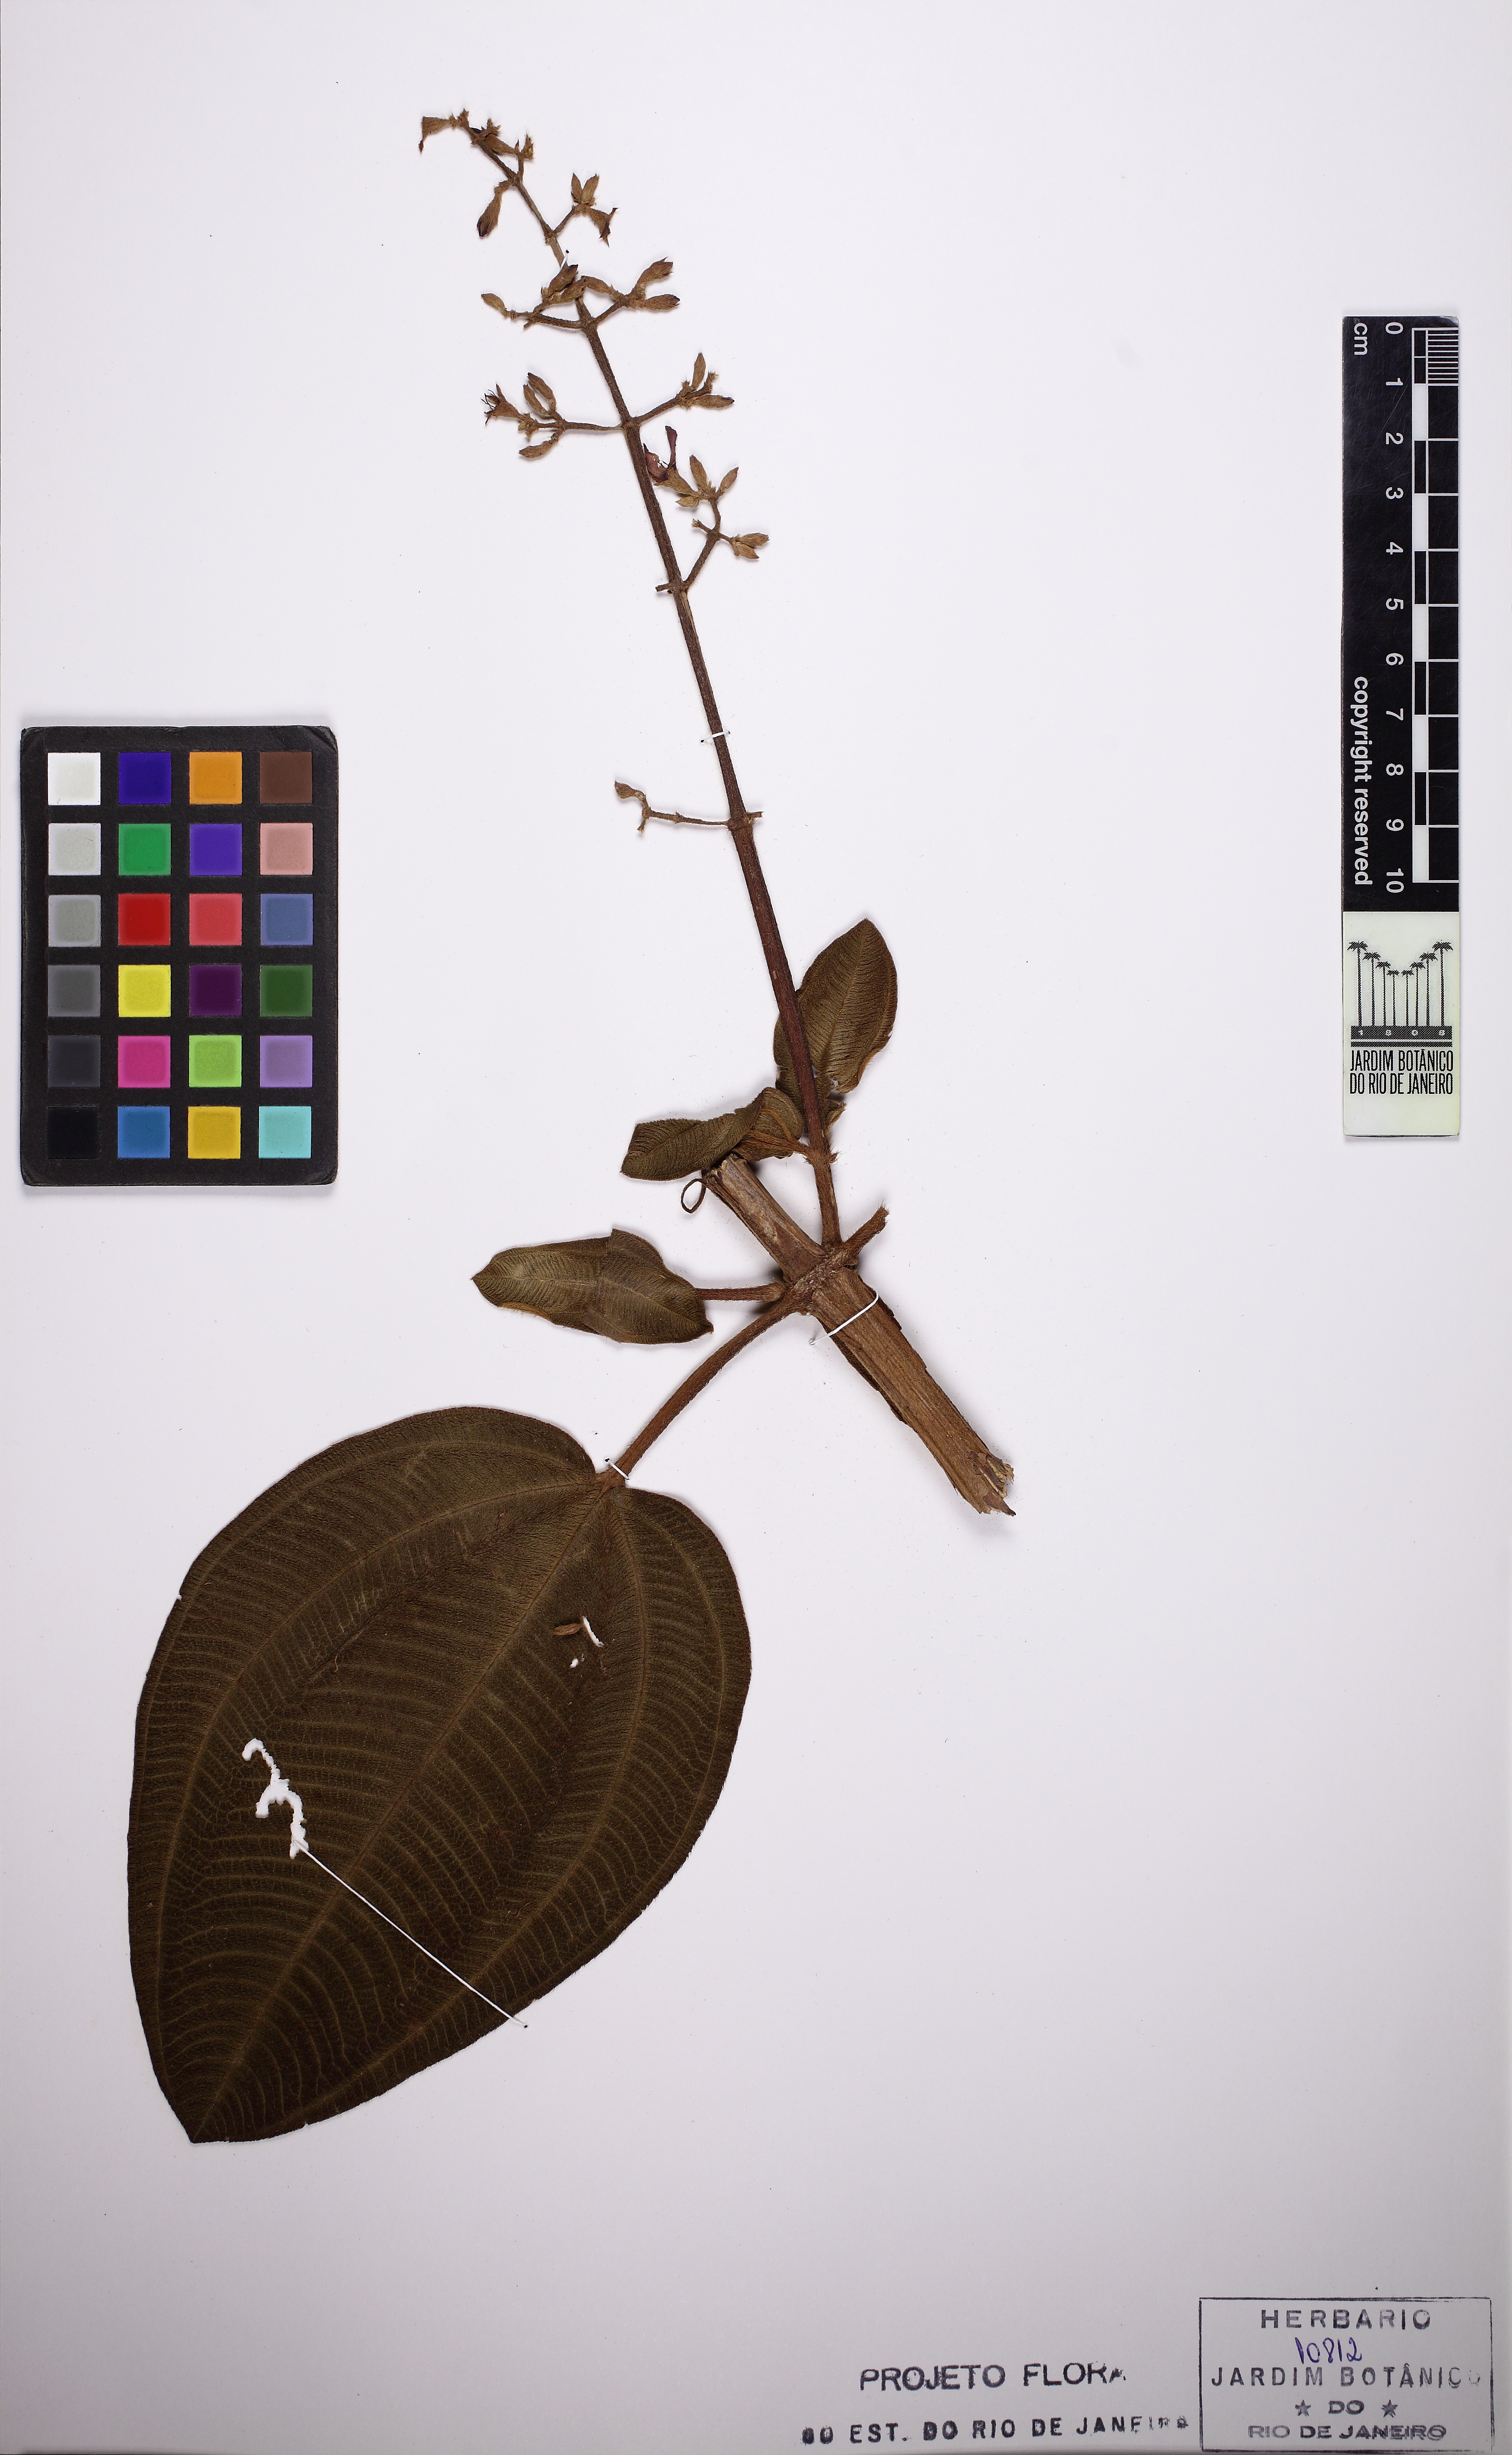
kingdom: Plantae
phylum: Tracheophyta
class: Magnoliopsida
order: Myrtales
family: Melastomataceae
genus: Chaetogastra
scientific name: Chaetogastra gracilis
